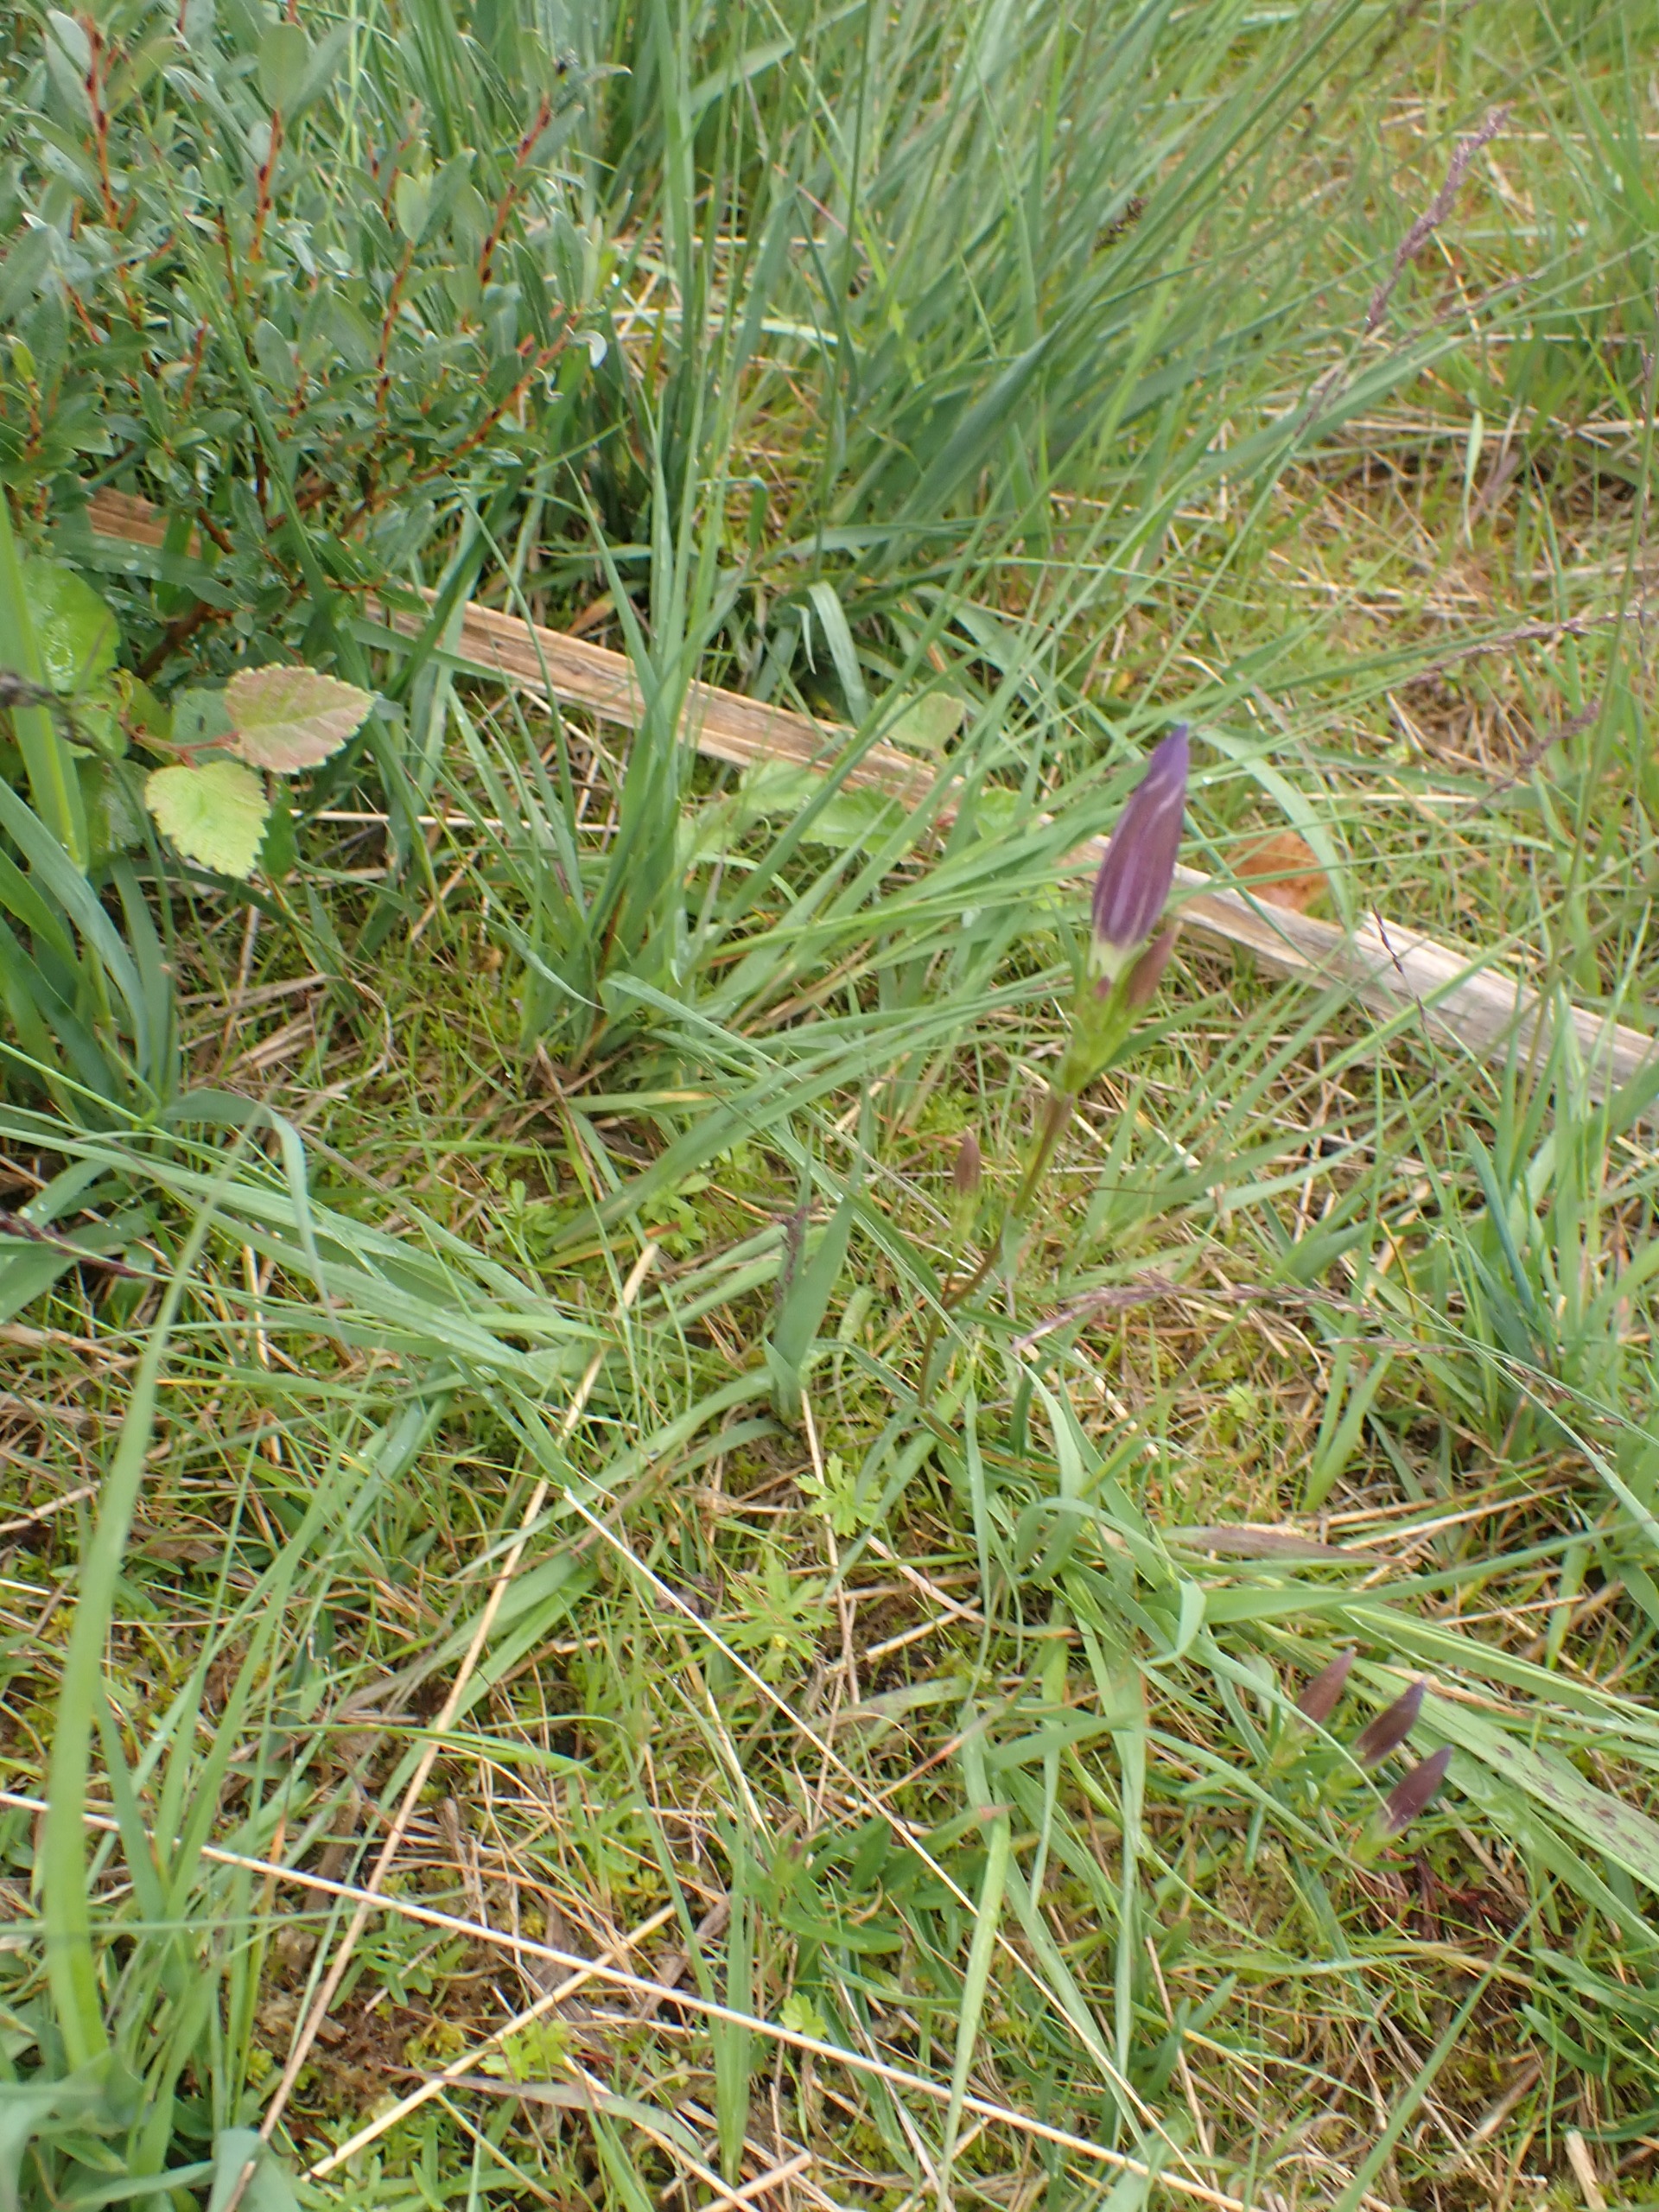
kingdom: Plantae
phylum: Tracheophyta
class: Magnoliopsida
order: Gentianales
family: Gentianaceae
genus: Gentiana
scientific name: Gentiana pneumonanthe
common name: Klokke-ensian
